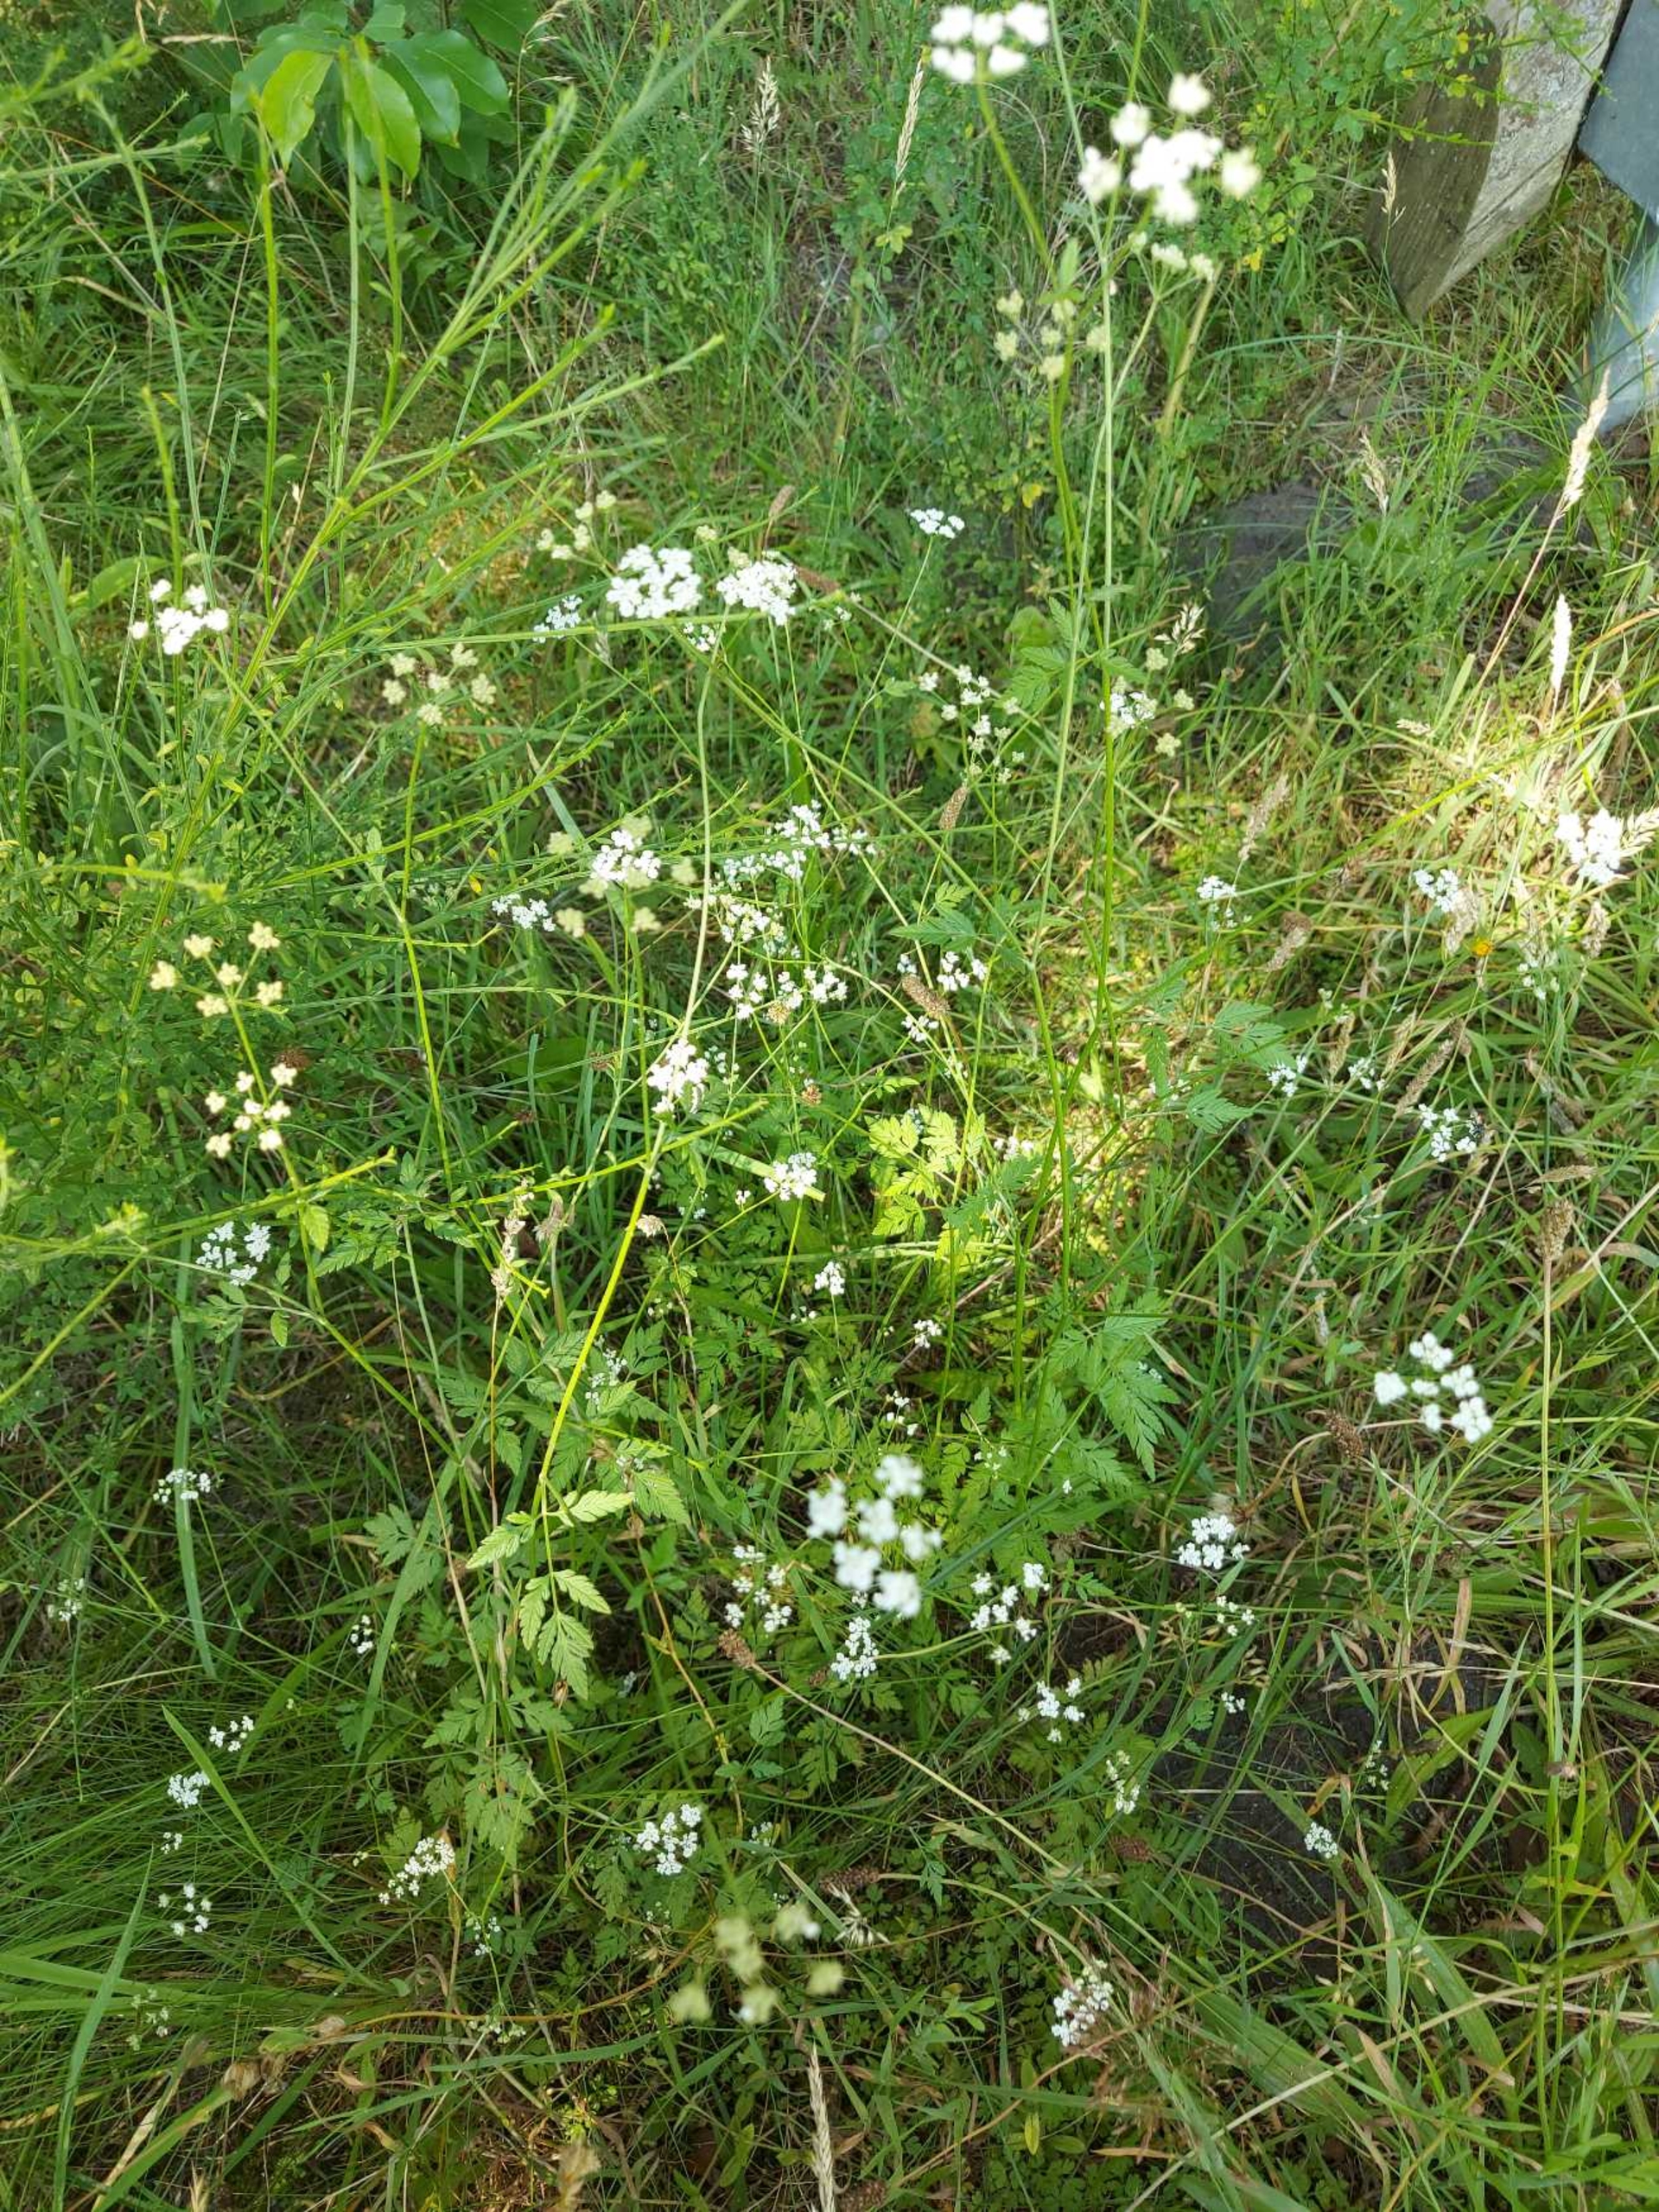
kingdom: Plantae
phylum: Tracheophyta
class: Magnoliopsida
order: Apiales
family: Apiaceae
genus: Torilis
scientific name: Torilis japonica
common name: Hvas randfrø
